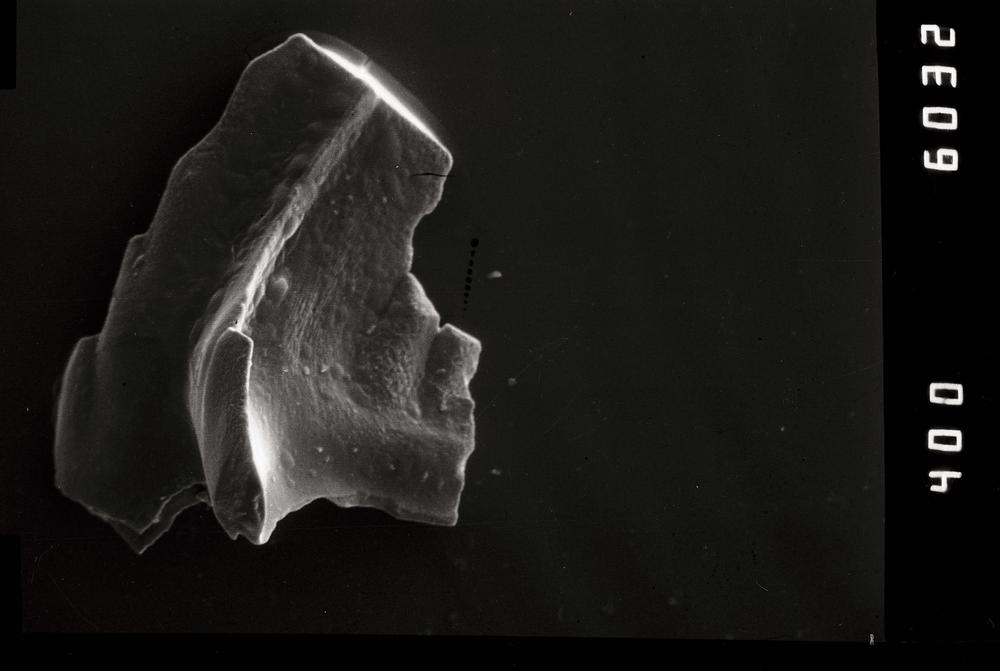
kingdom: Animalia
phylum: Chordata
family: Balognathidae
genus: Prioniodus
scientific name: Prioniodus
